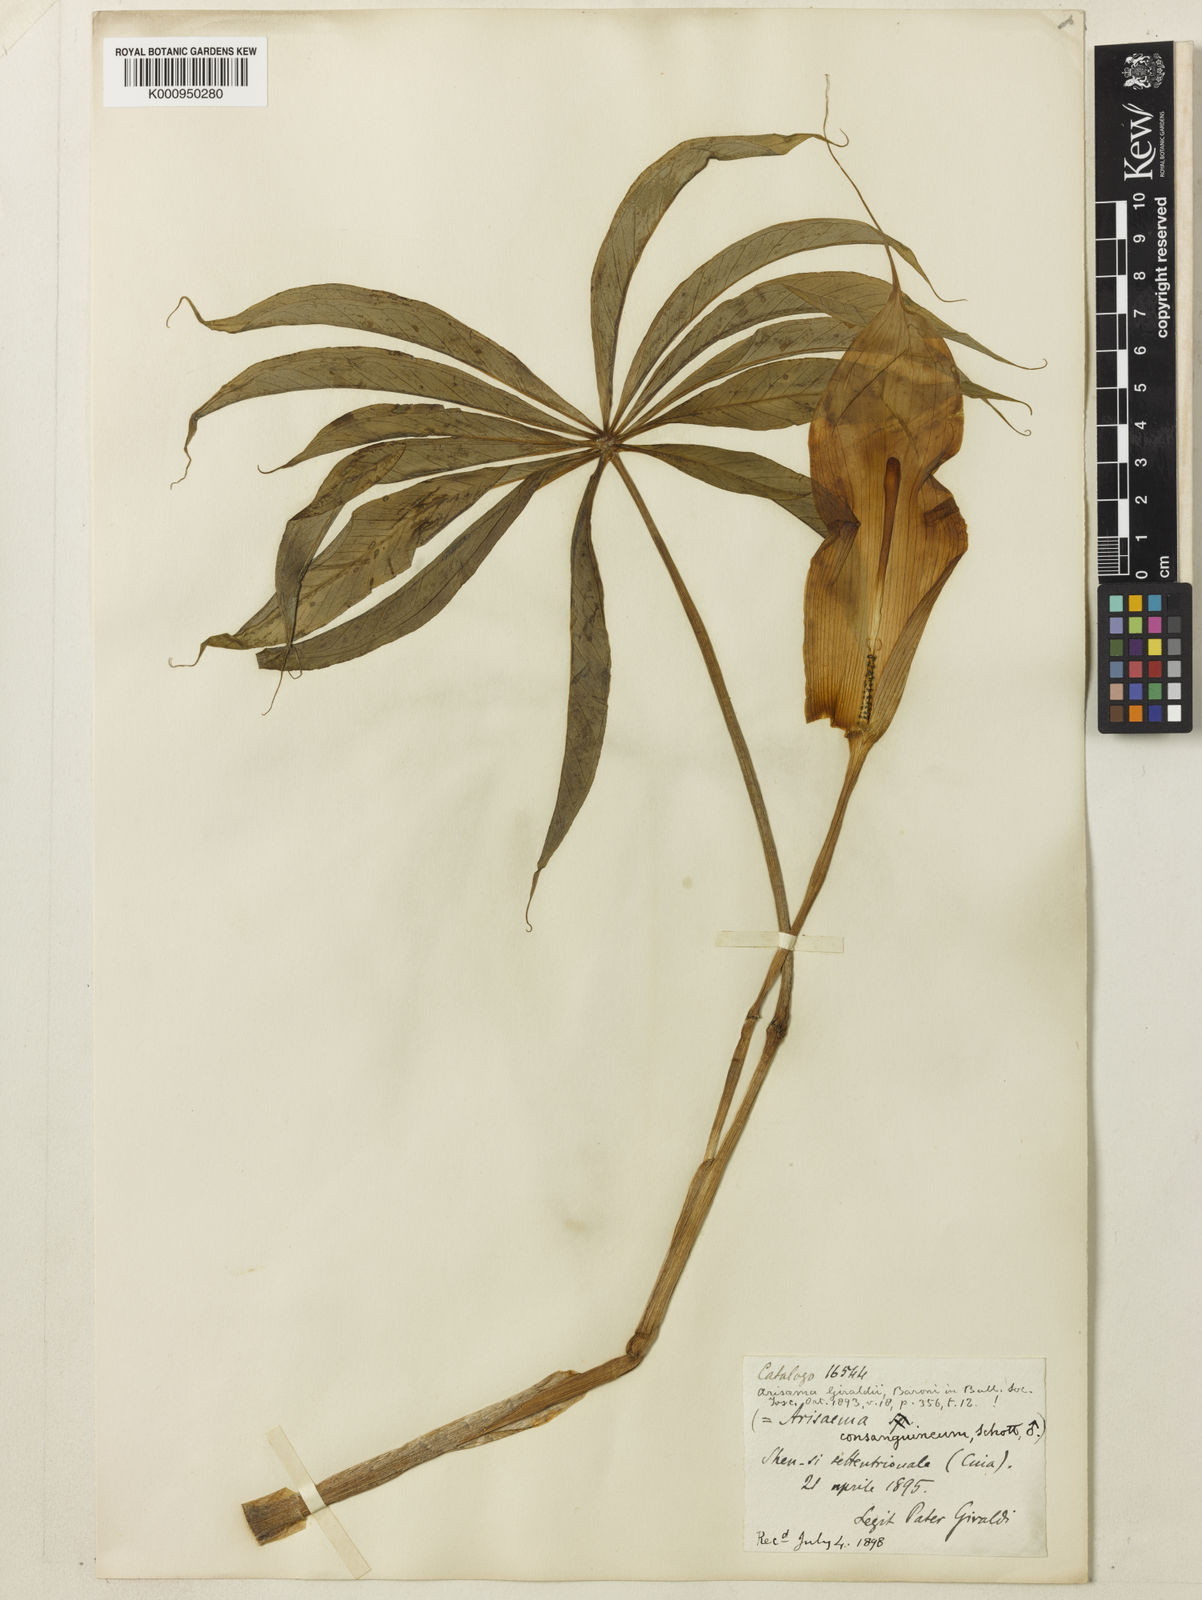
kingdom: Plantae
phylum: Tracheophyta
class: Liliopsida
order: Alismatales
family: Araceae
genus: Arisaema
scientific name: Arisaema erubescens
